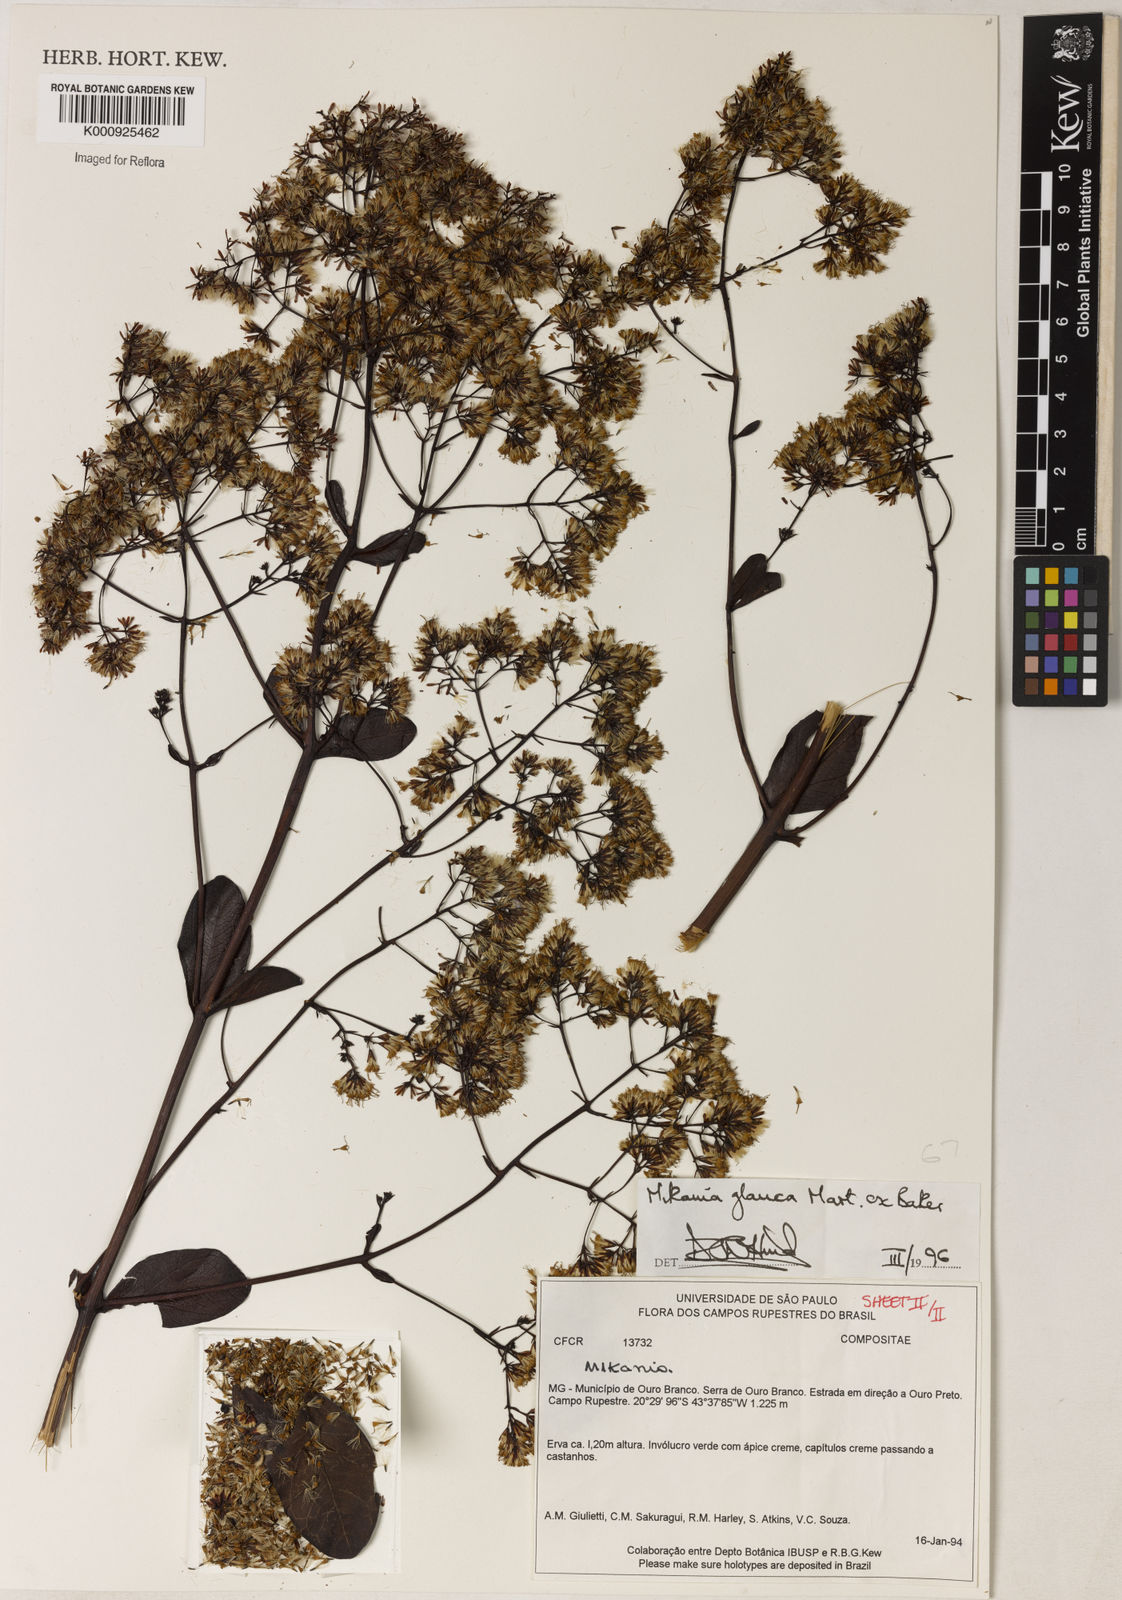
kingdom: Plantae
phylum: Tracheophyta
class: Magnoliopsida
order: Asterales
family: Asteraceae
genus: Mikania
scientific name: Mikania
